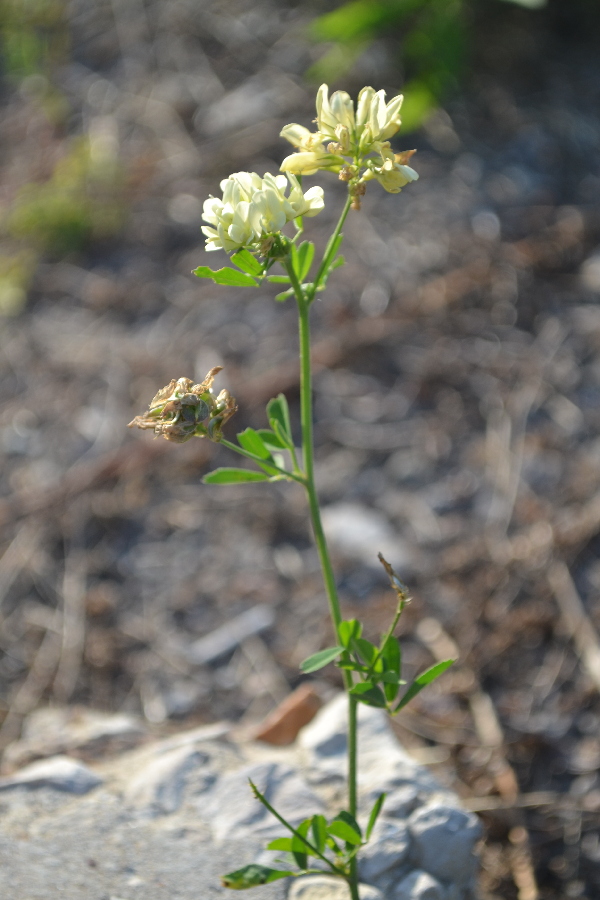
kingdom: Plantae
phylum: Tracheophyta
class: Magnoliopsida
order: Fabales
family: Fabaceae
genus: Medicago
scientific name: Medicago sativa
